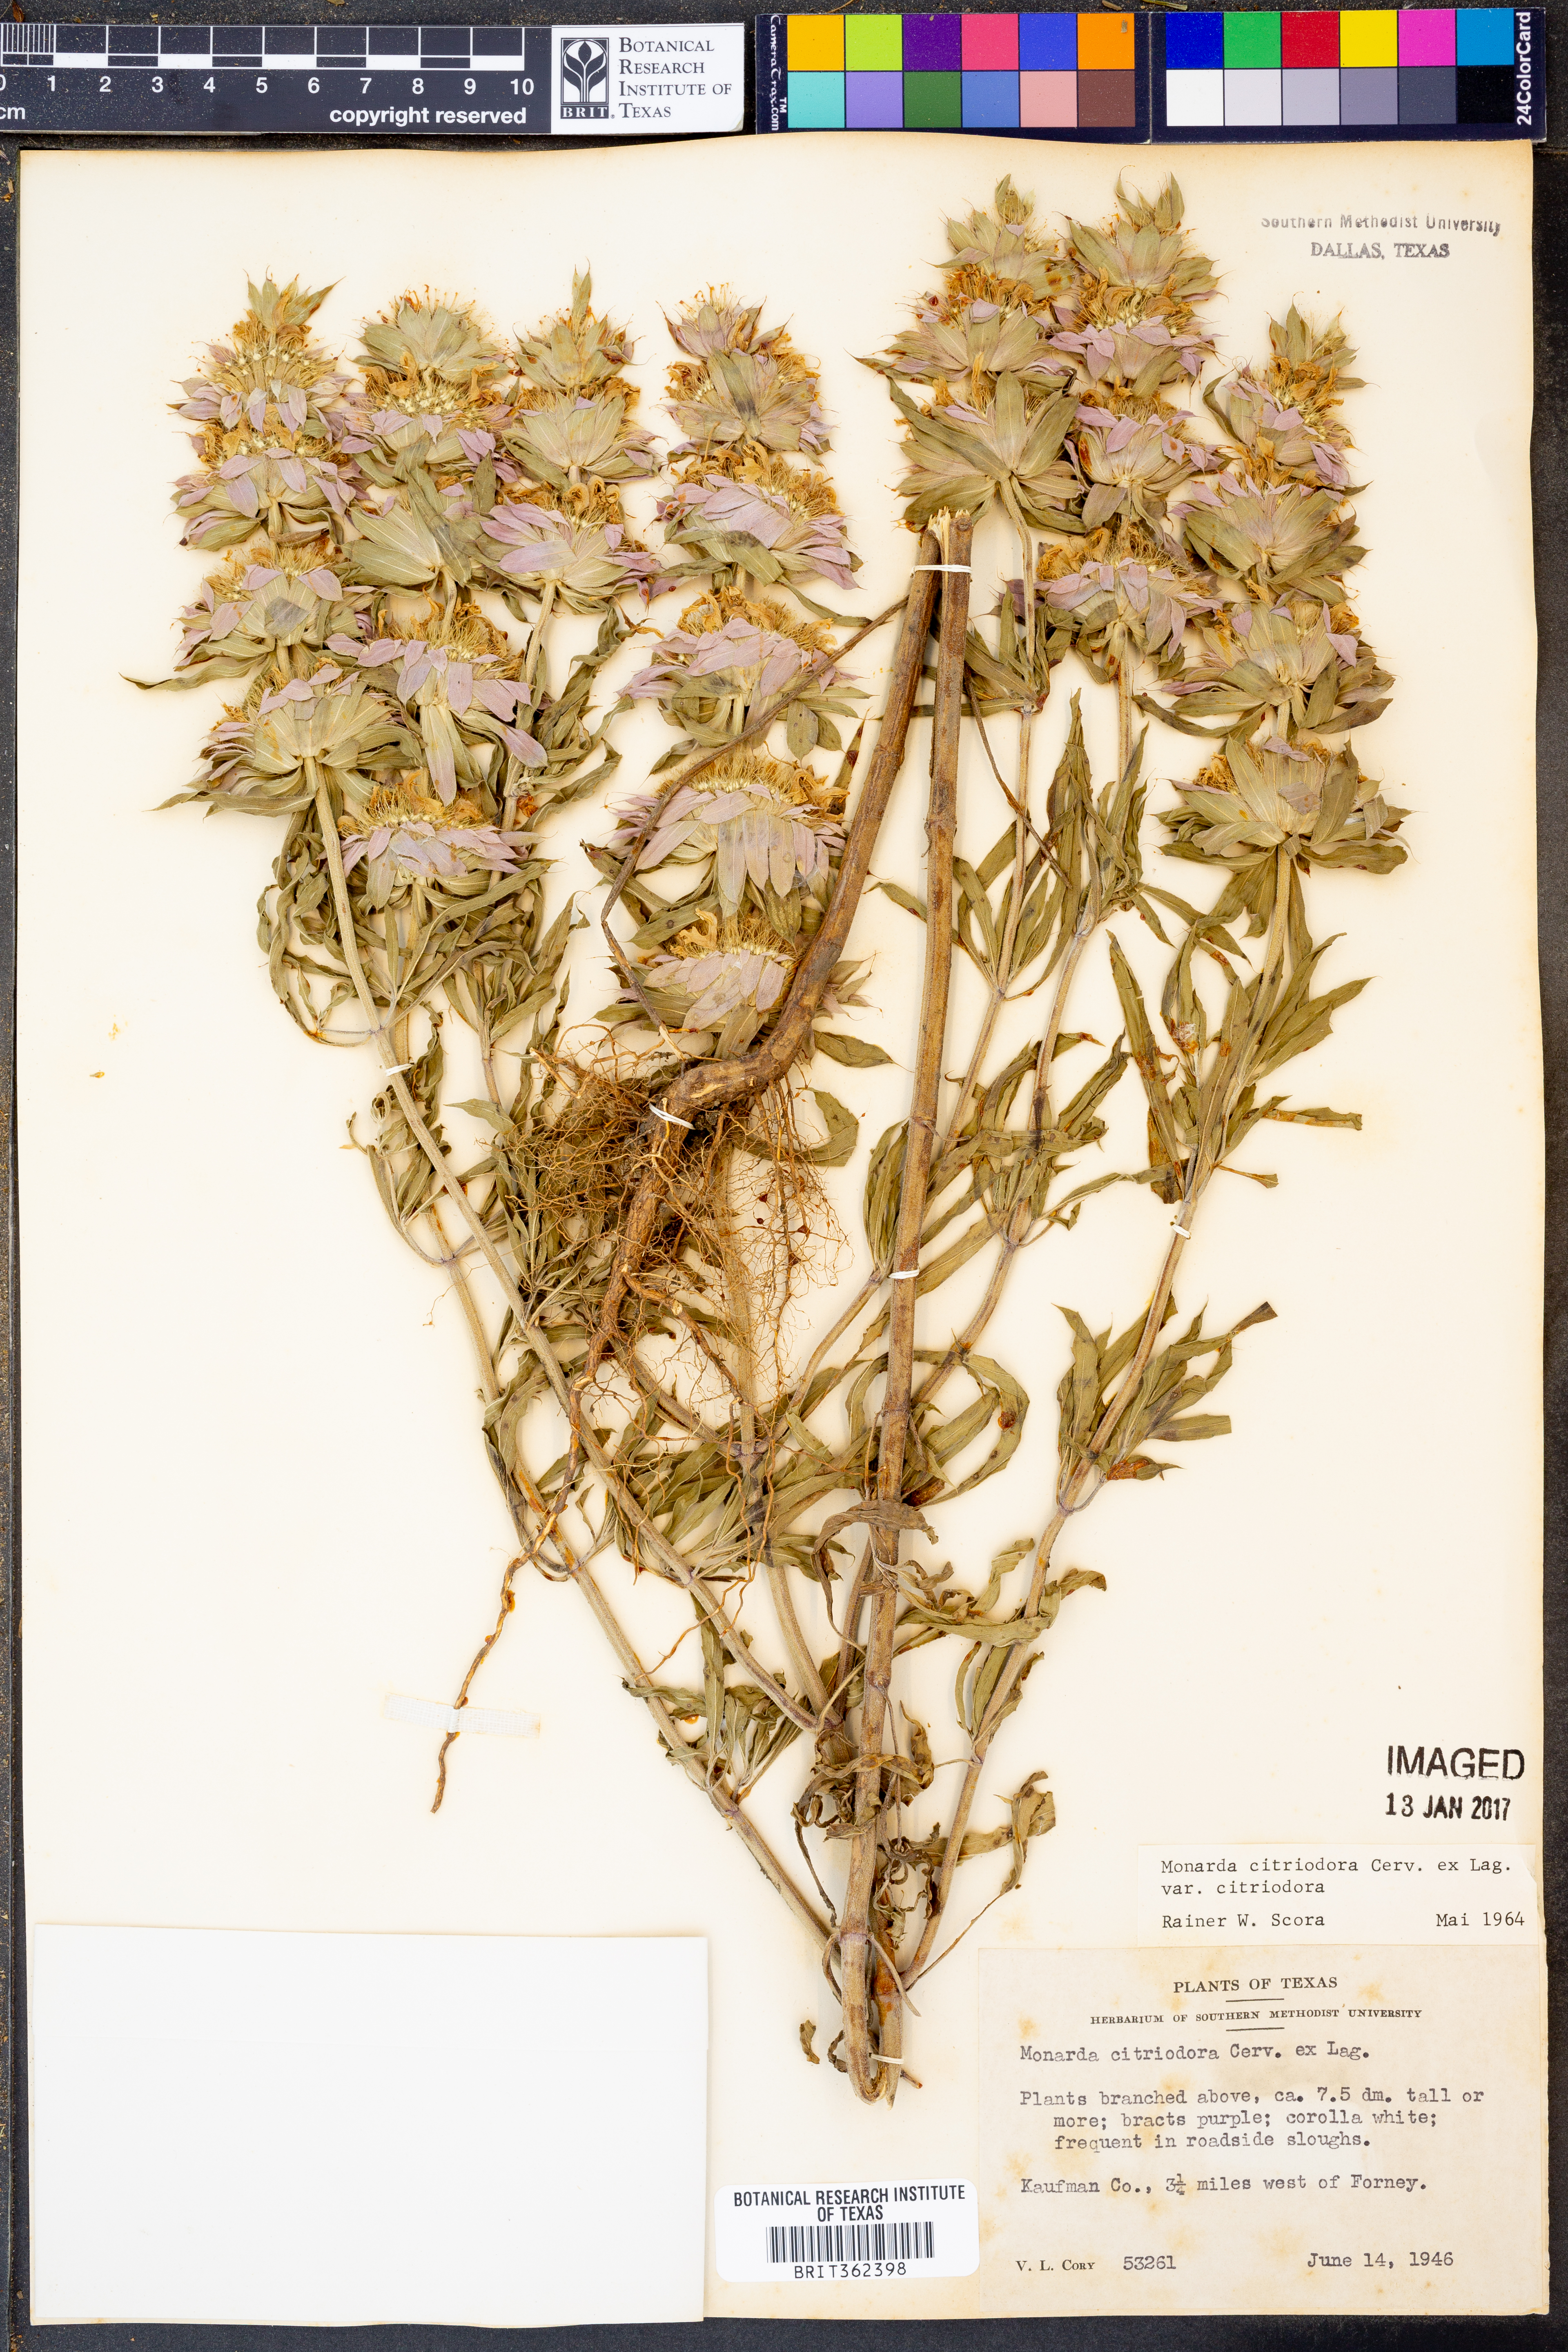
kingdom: Plantae
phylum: Tracheophyta
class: Magnoliopsida
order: Lamiales
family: Lamiaceae
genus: Monarda
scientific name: Monarda citriodora
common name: Lemon beebalm
